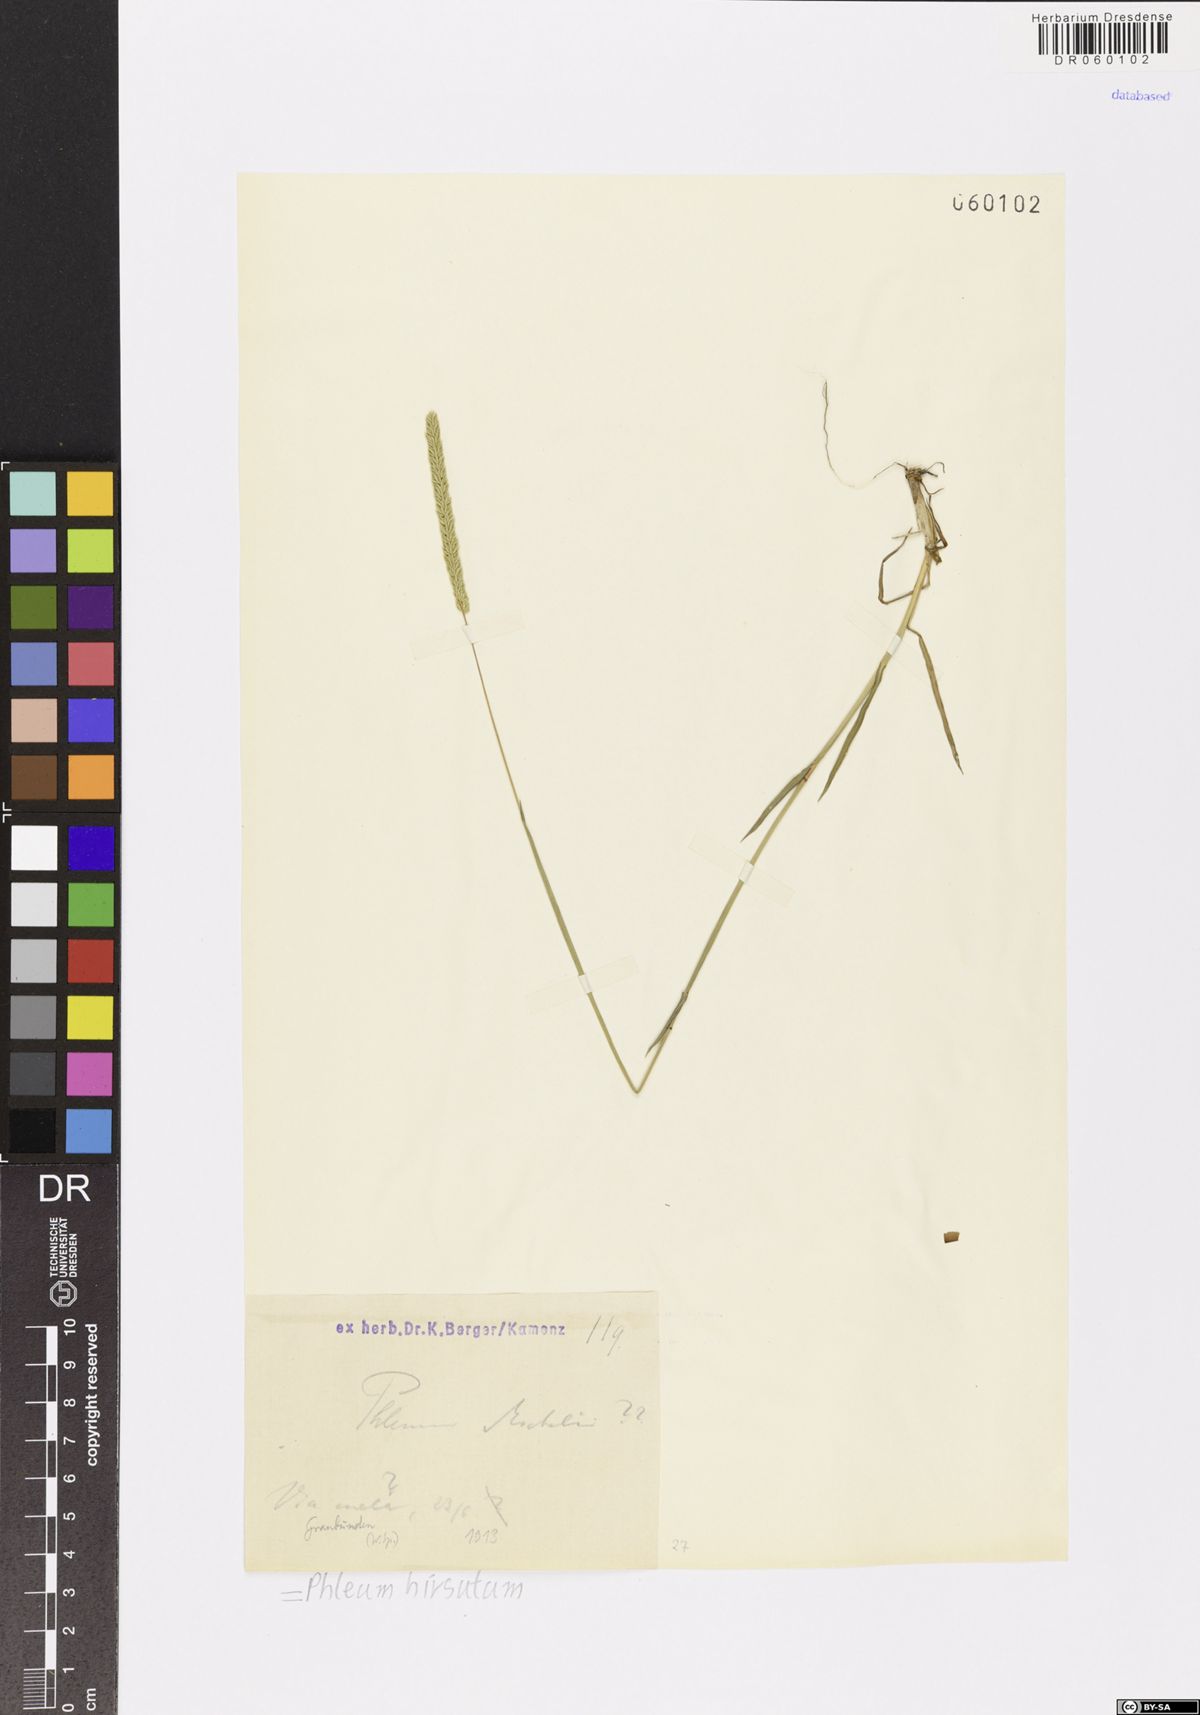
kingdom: Plantae
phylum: Tracheophyta
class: Liliopsida
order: Poales
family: Poaceae
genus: Phleum
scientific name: Phleum hirsutum
